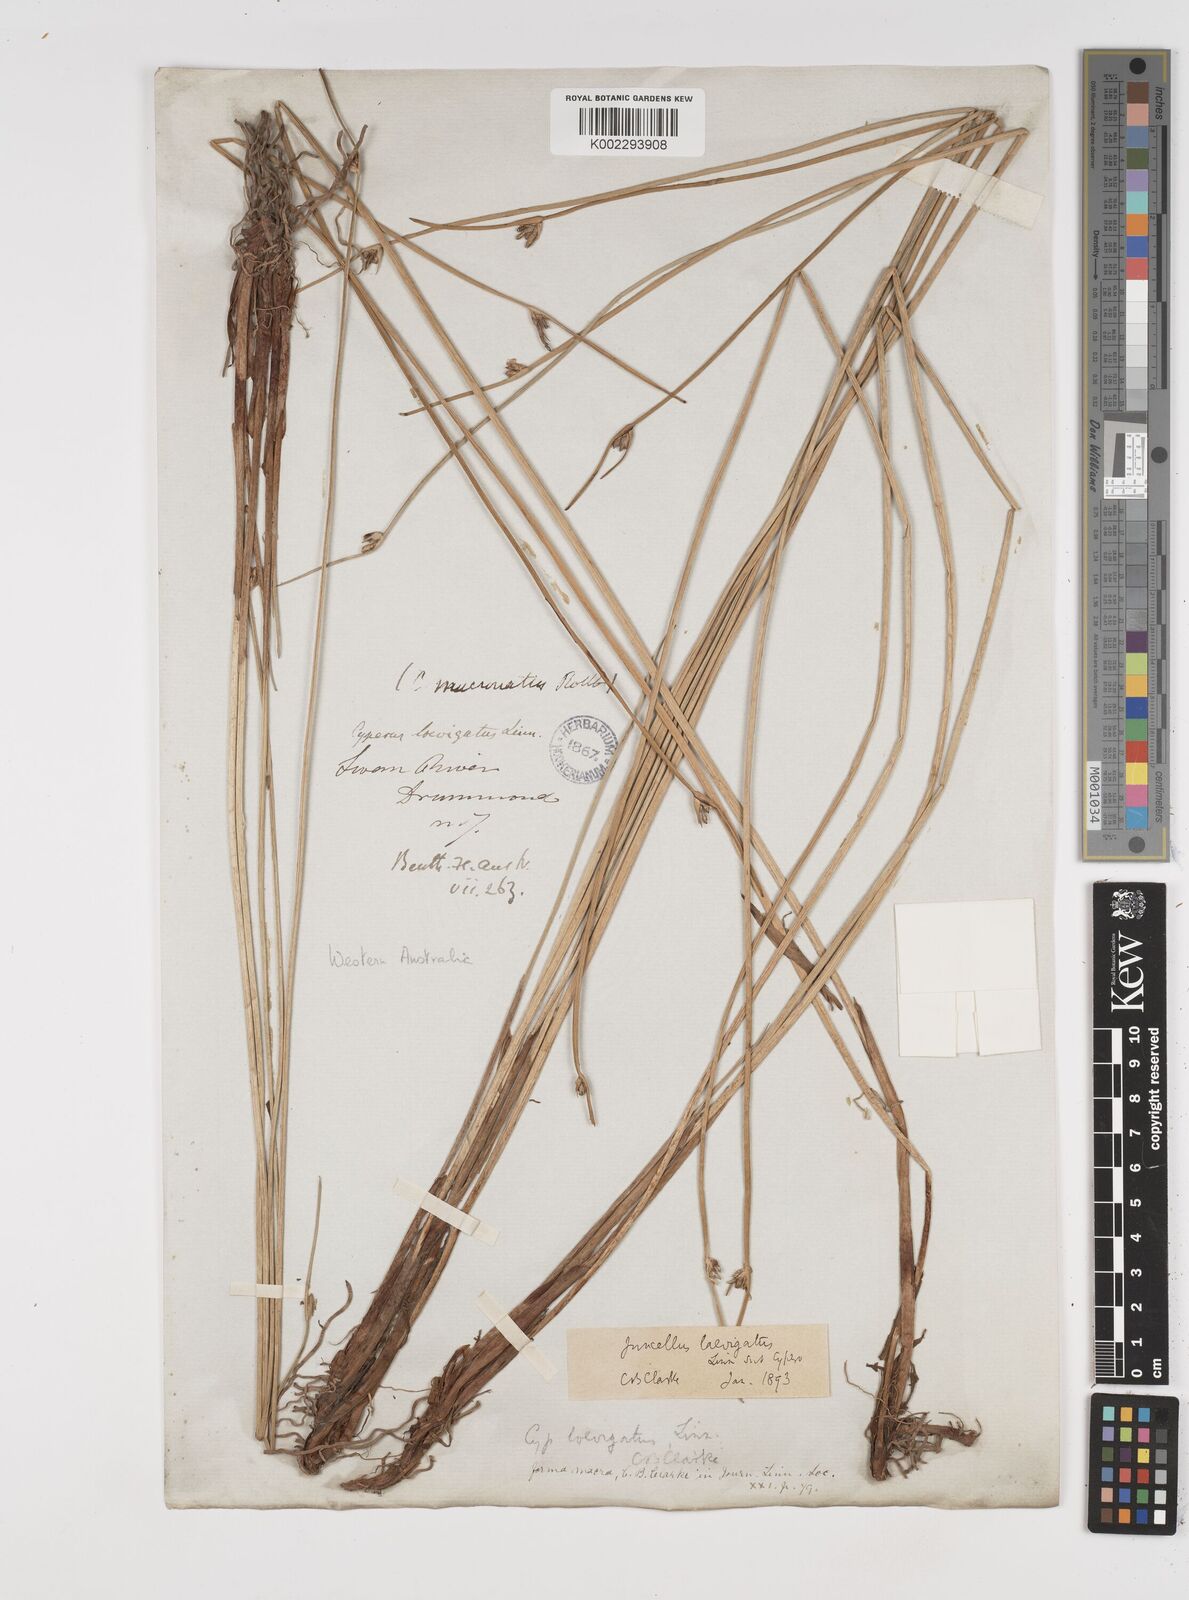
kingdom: Plantae
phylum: Tracheophyta
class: Liliopsida
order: Poales
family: Cyperaceae
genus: Cyperus
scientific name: Cyperus laevigatus
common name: Smooth flat sedge
